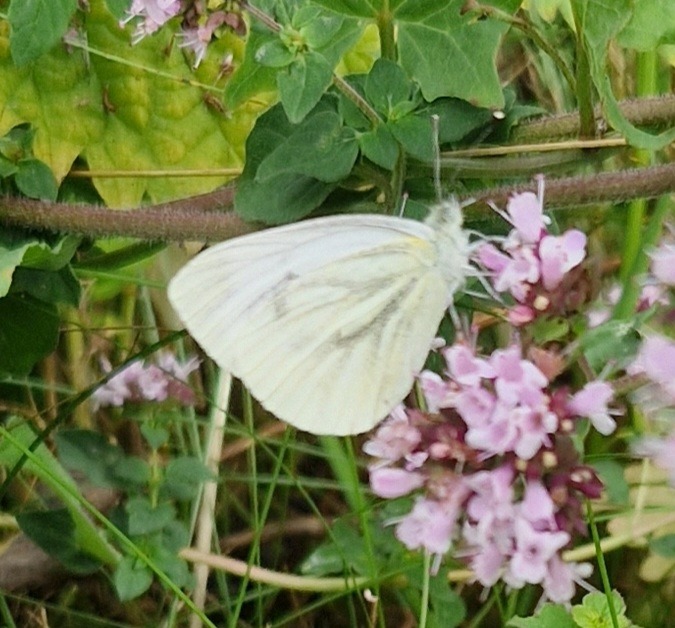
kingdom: Animalia
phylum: Arthropoda
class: Insecta
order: Lepidoptera
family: Pieridae
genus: Pieris
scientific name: Pieris napi
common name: Grønåret kålsommerfugl
